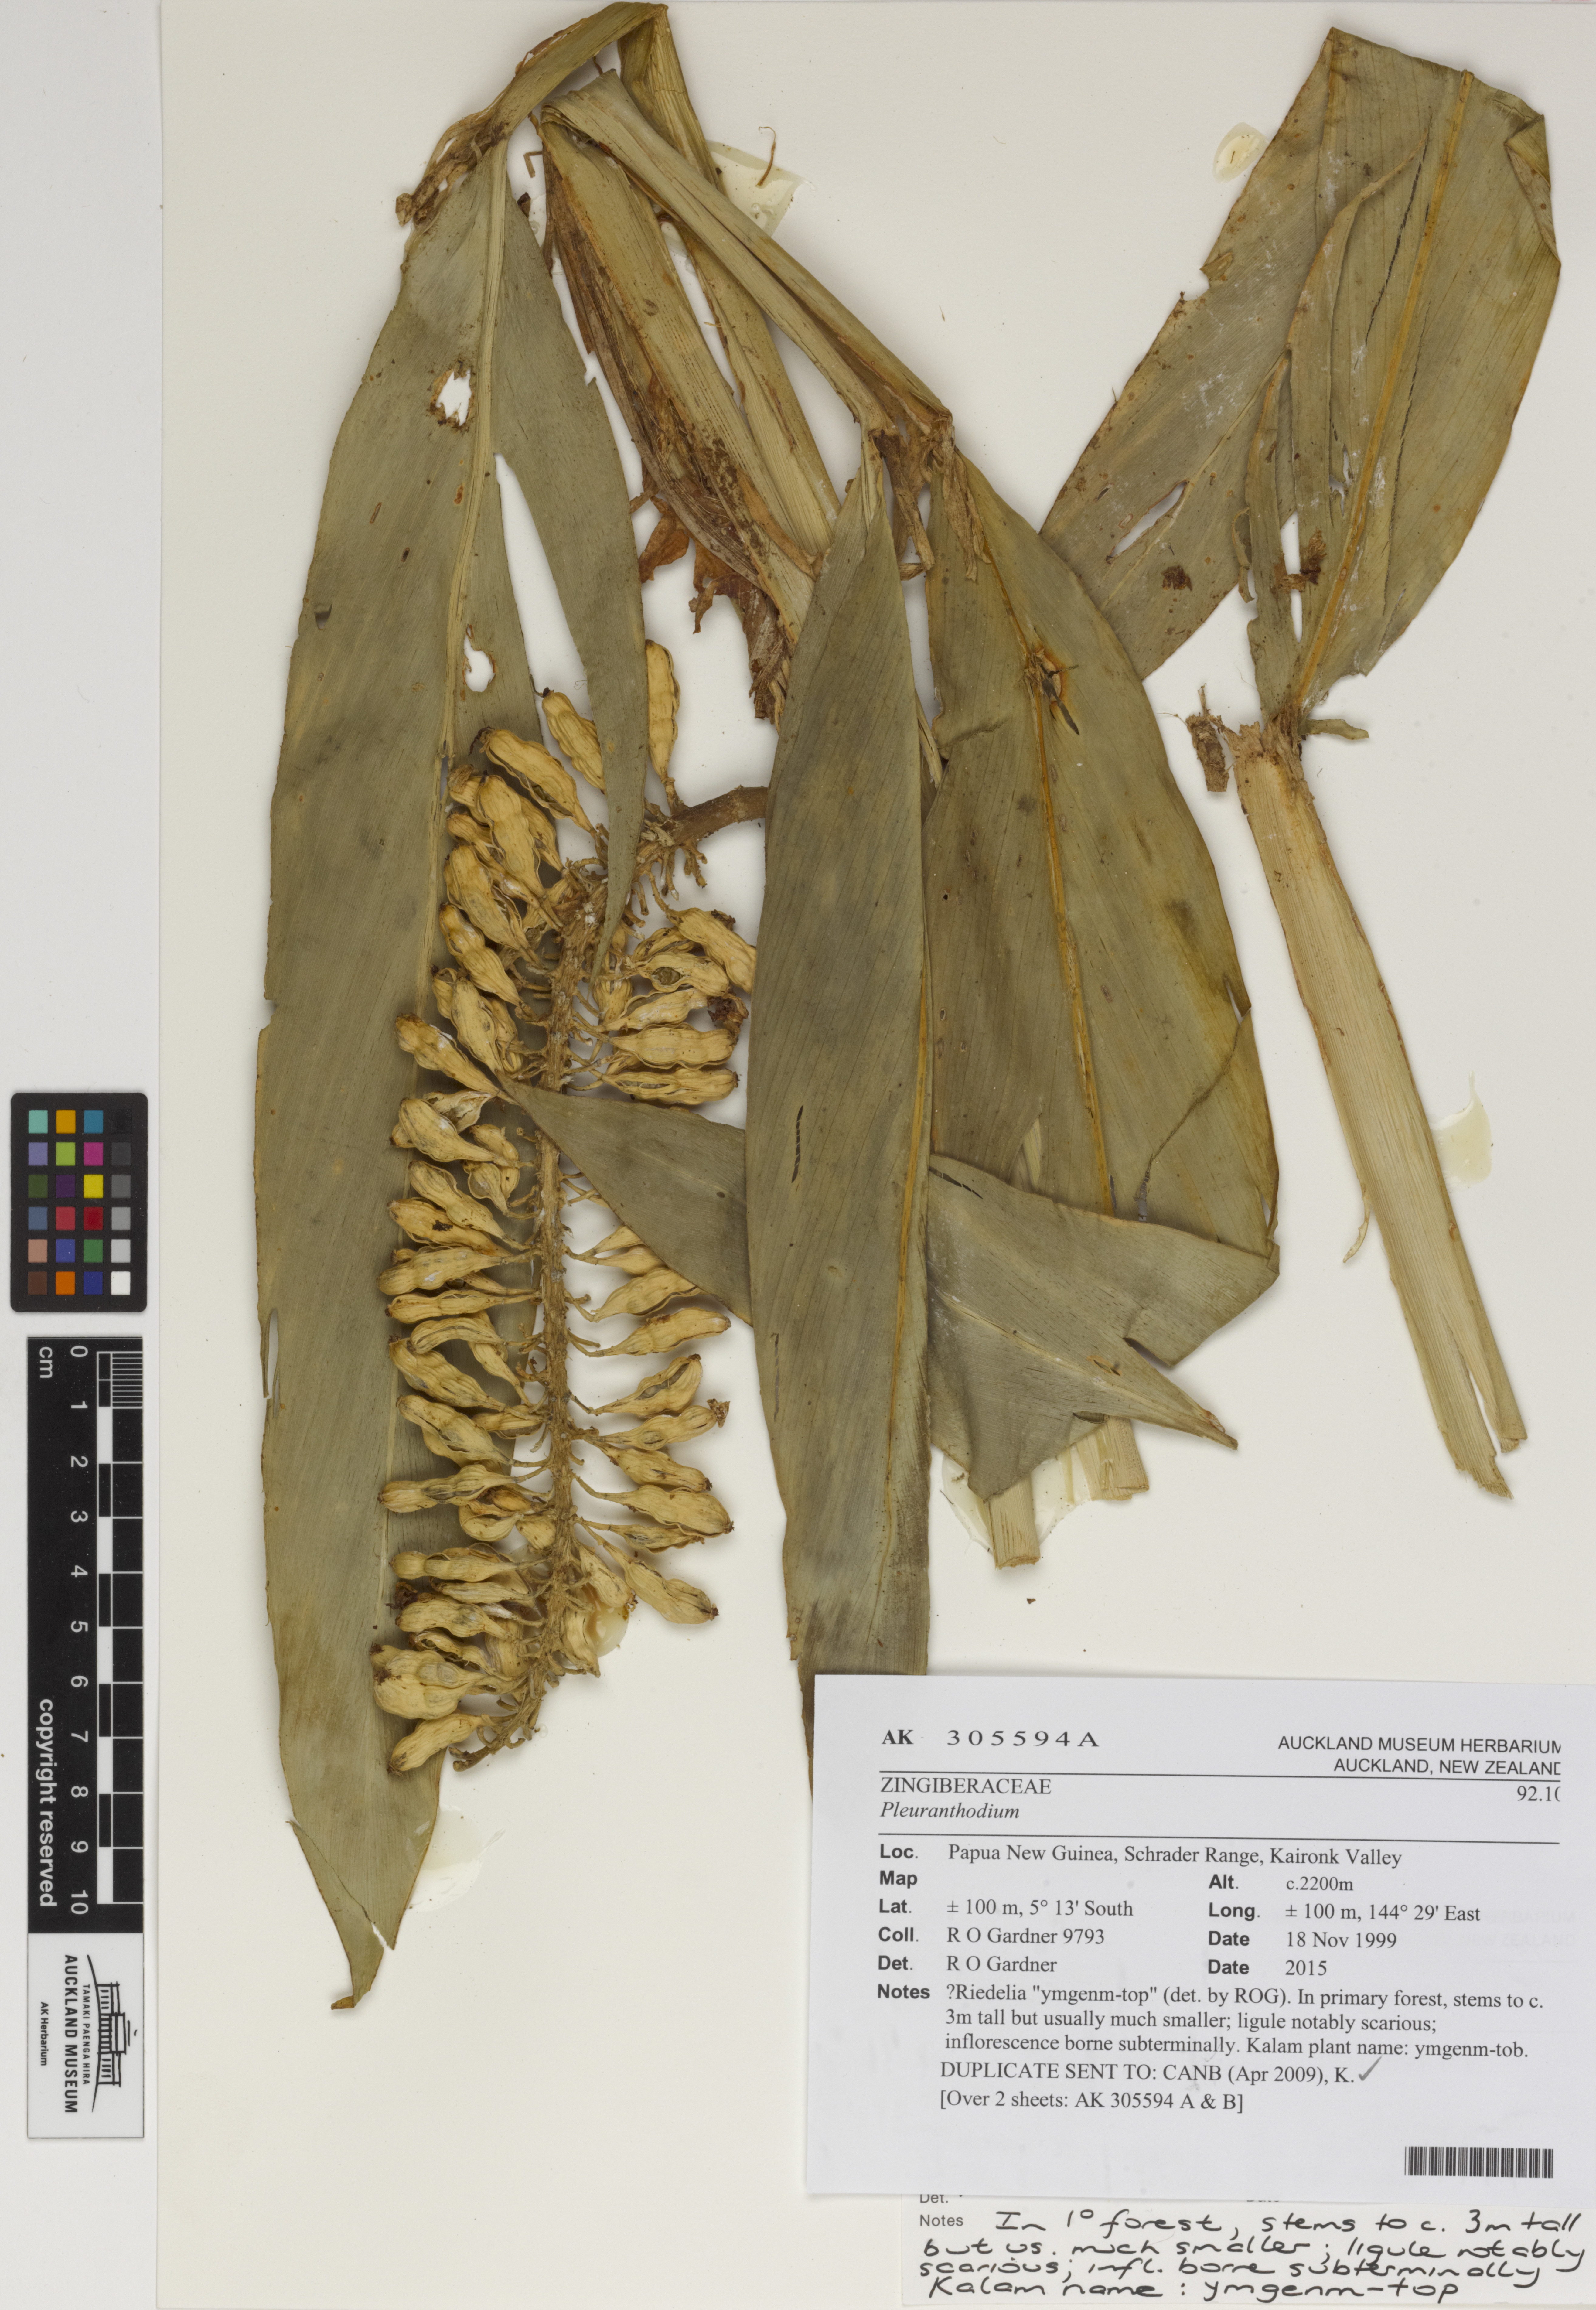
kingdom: Plantae
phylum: Tracheophyta
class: Liliopsida
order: Zingiberales
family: Zingiberaceae
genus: Pleuranthodium
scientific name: Pleuranthodium
